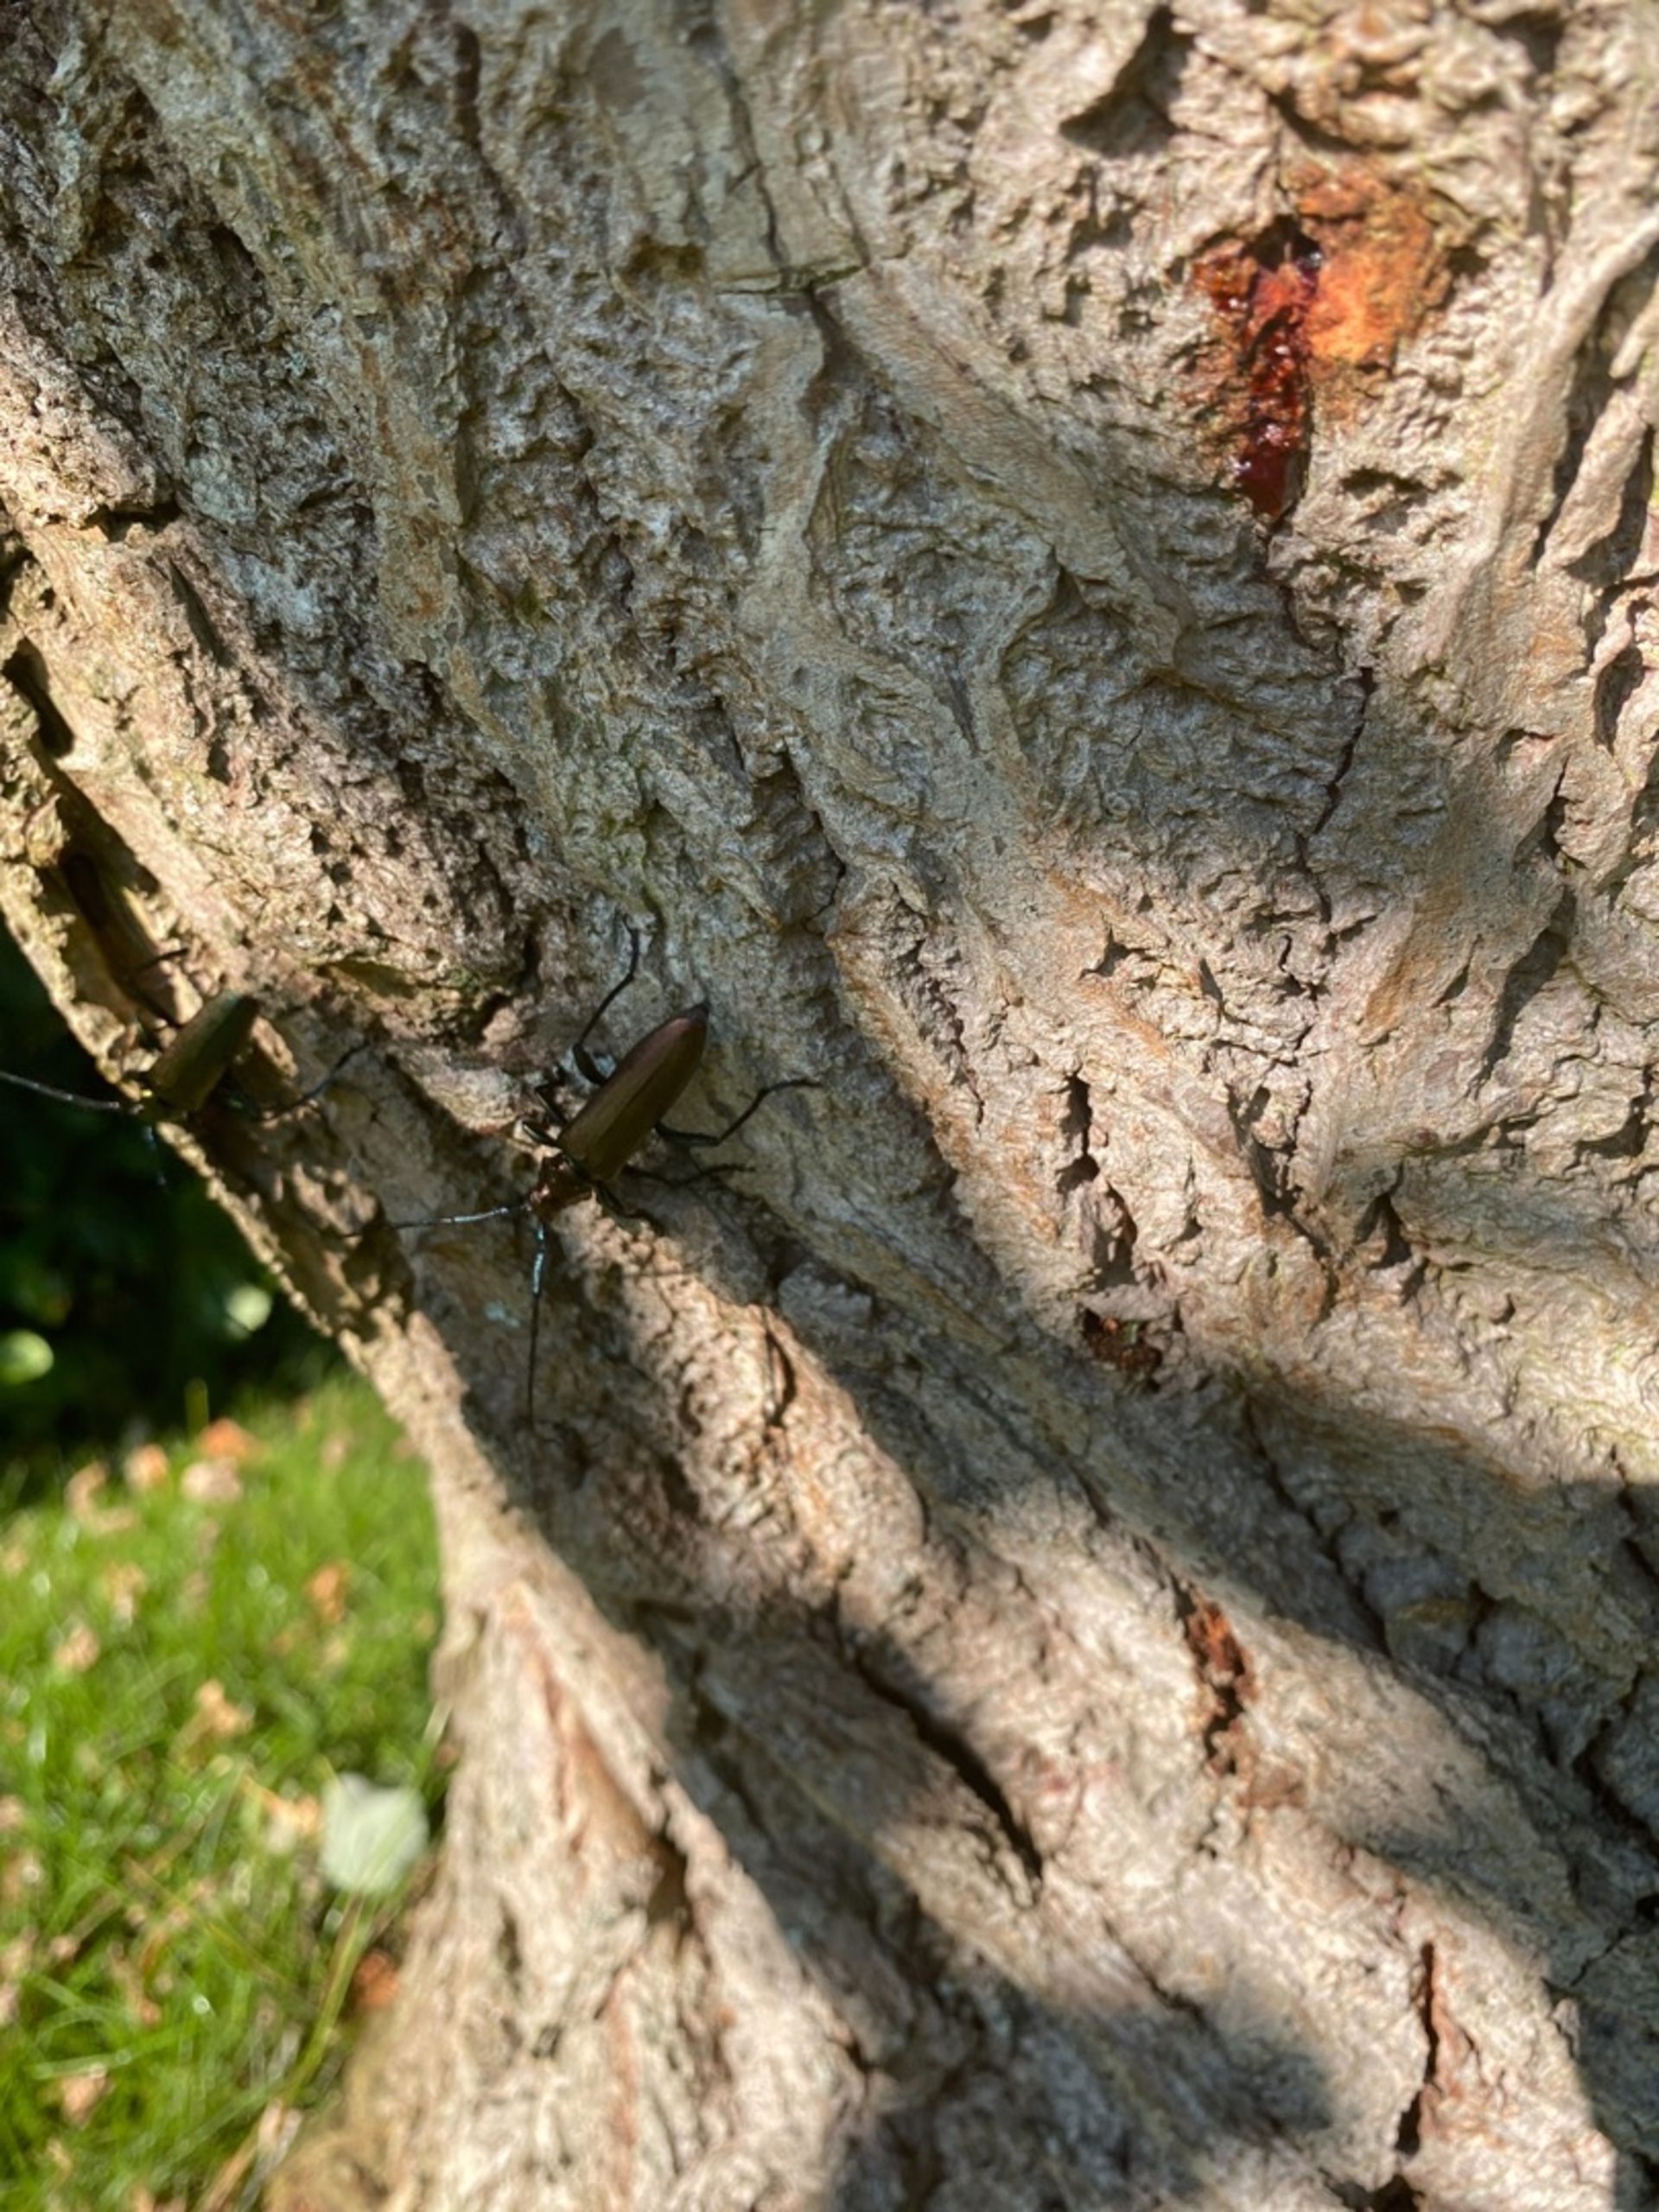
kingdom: Animalia
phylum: Arthropoda
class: Insecta
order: Coleoptera
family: Cerambycidae
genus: Aromia
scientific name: Aromia moschata
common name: Moskusbuk
